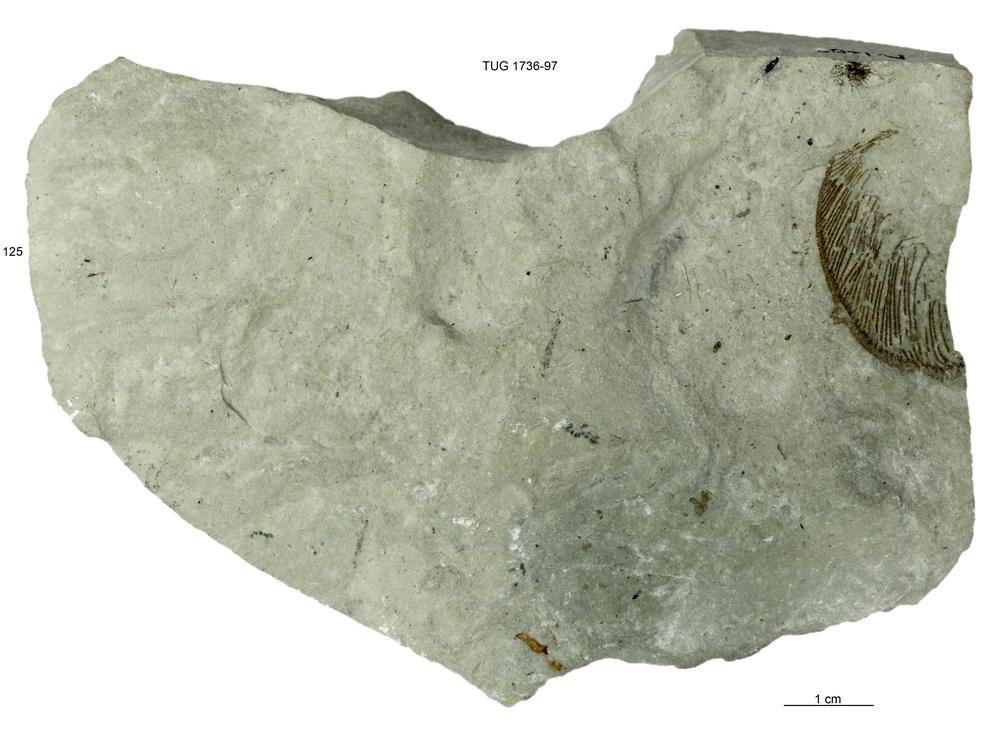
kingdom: Animalia
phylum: Echinodermata
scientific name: Echinodermata
